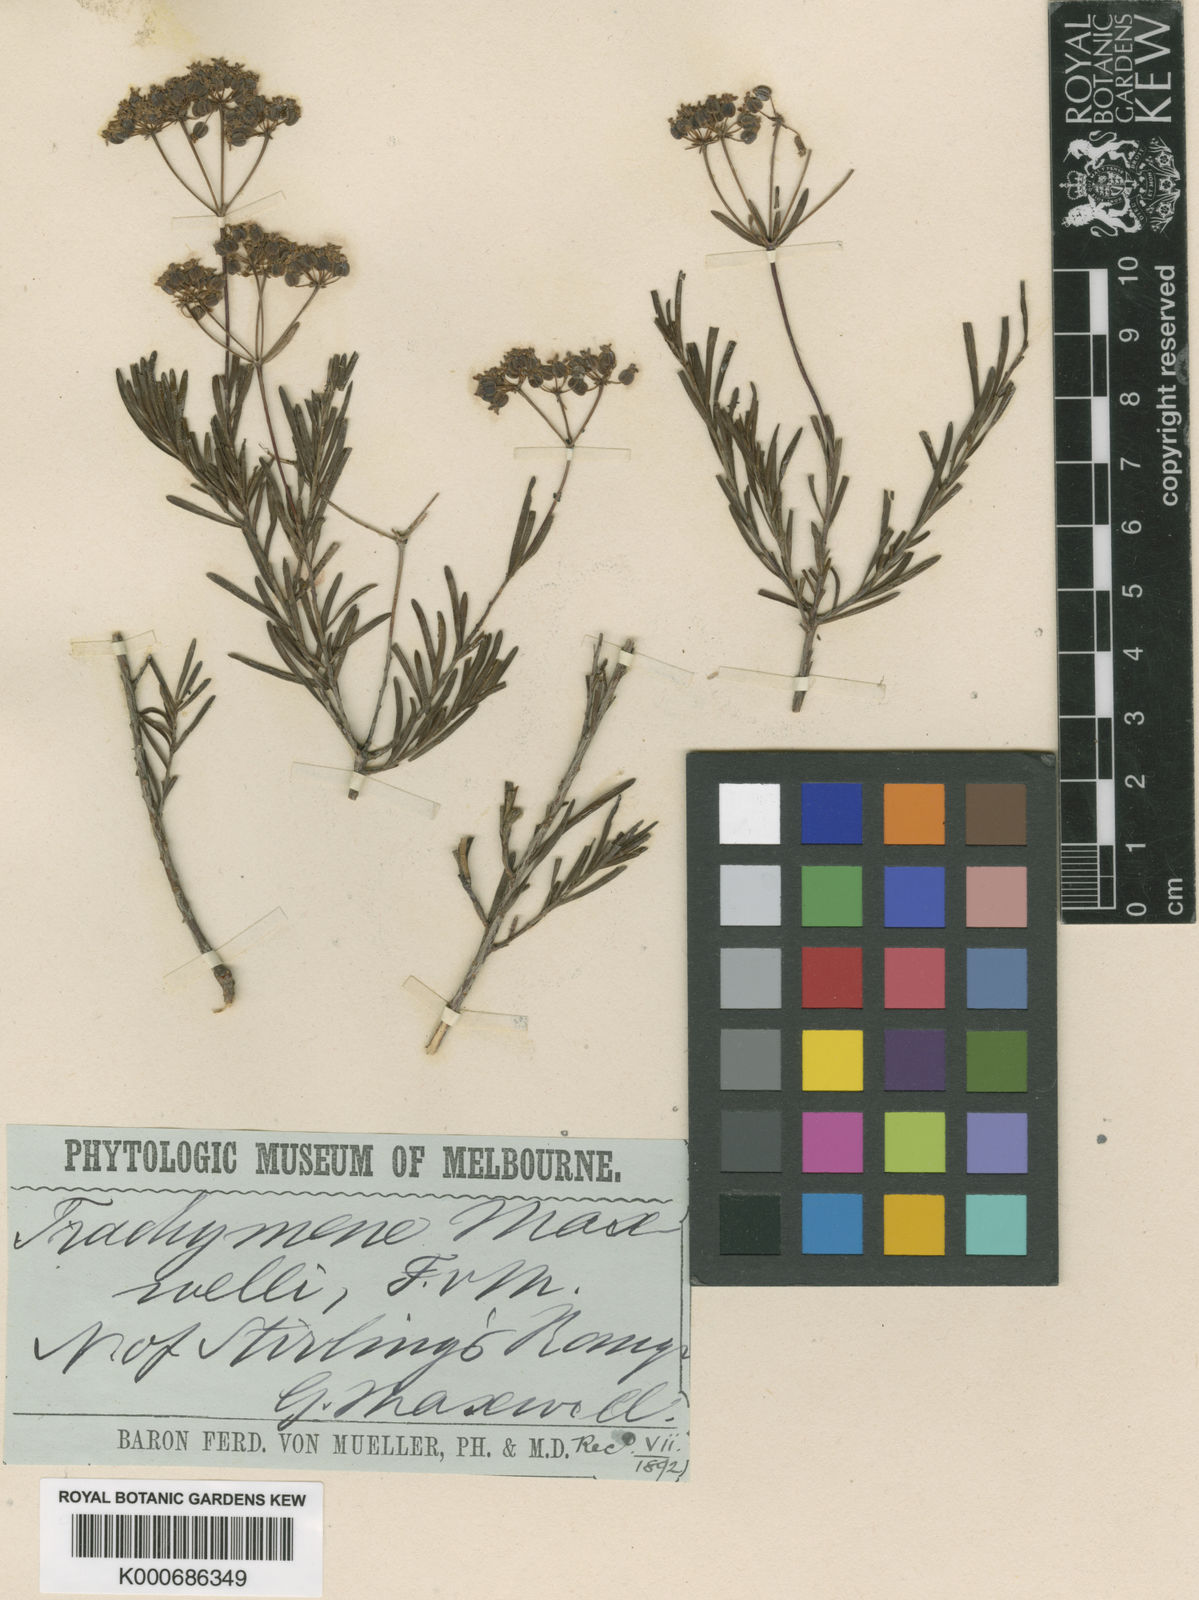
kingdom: Plantae
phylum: Tracheophyta
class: Magnoliopsida
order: Apiales
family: Apiaceae
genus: Platysace
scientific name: Platysace maxwellii
